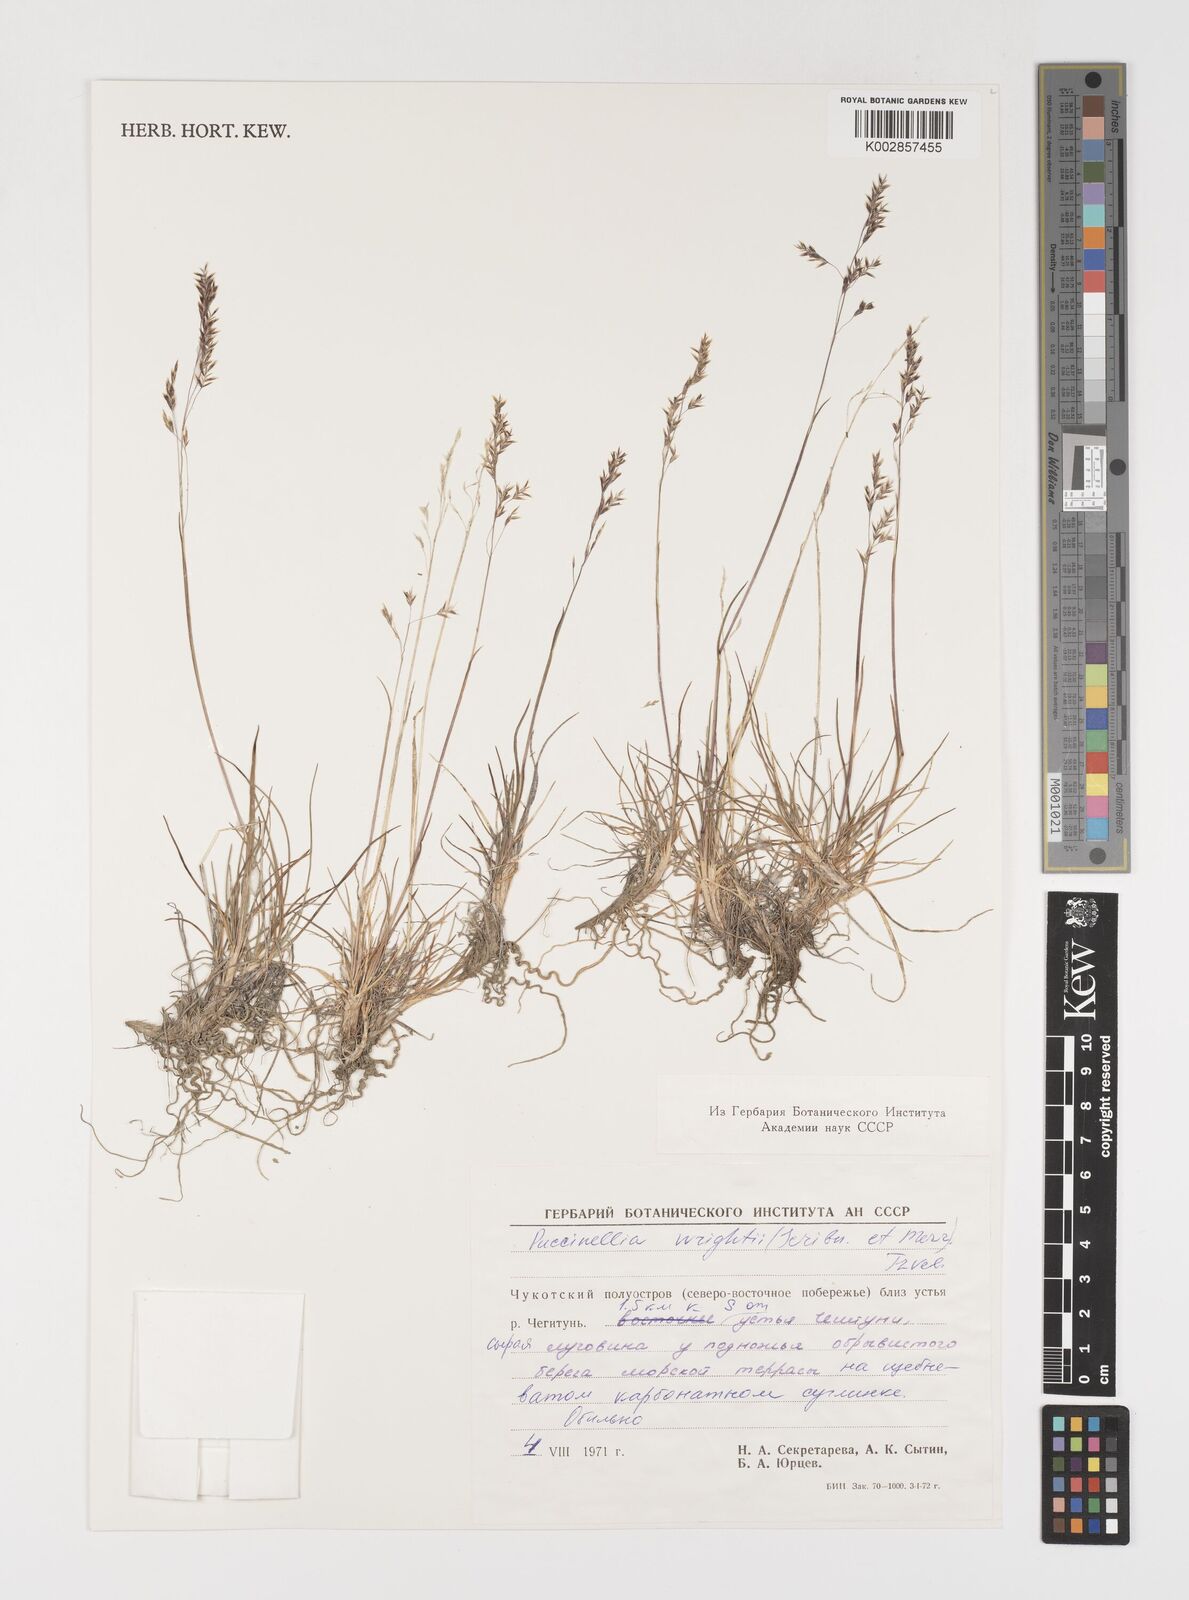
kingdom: Plantae
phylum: Tracheophyta
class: Liliopsida
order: Poales
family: Poaceae
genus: Puccinellia
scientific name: Puccinellia wrightii
